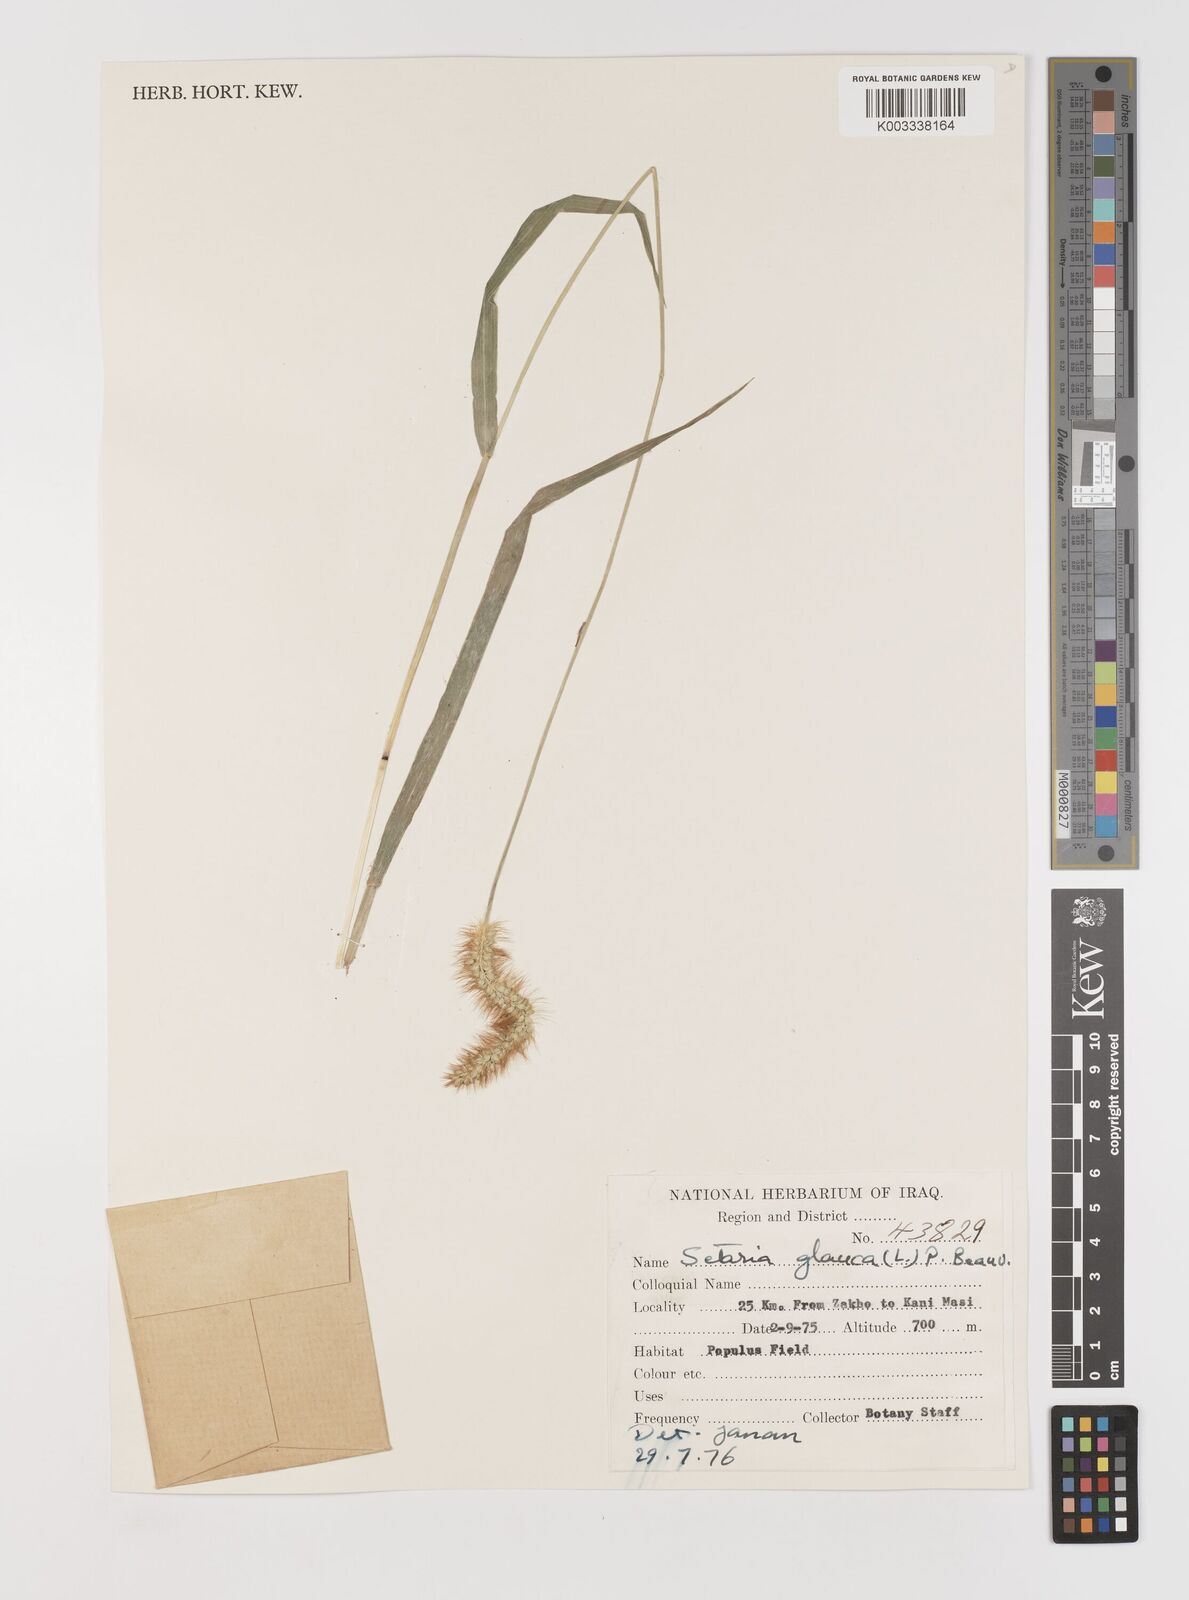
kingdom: Plantae
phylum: Tracheophyta
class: Liliopsida
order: Poales
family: Poaceae
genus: Setaria
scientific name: Setaria pumila
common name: Yellow bristle-grass
